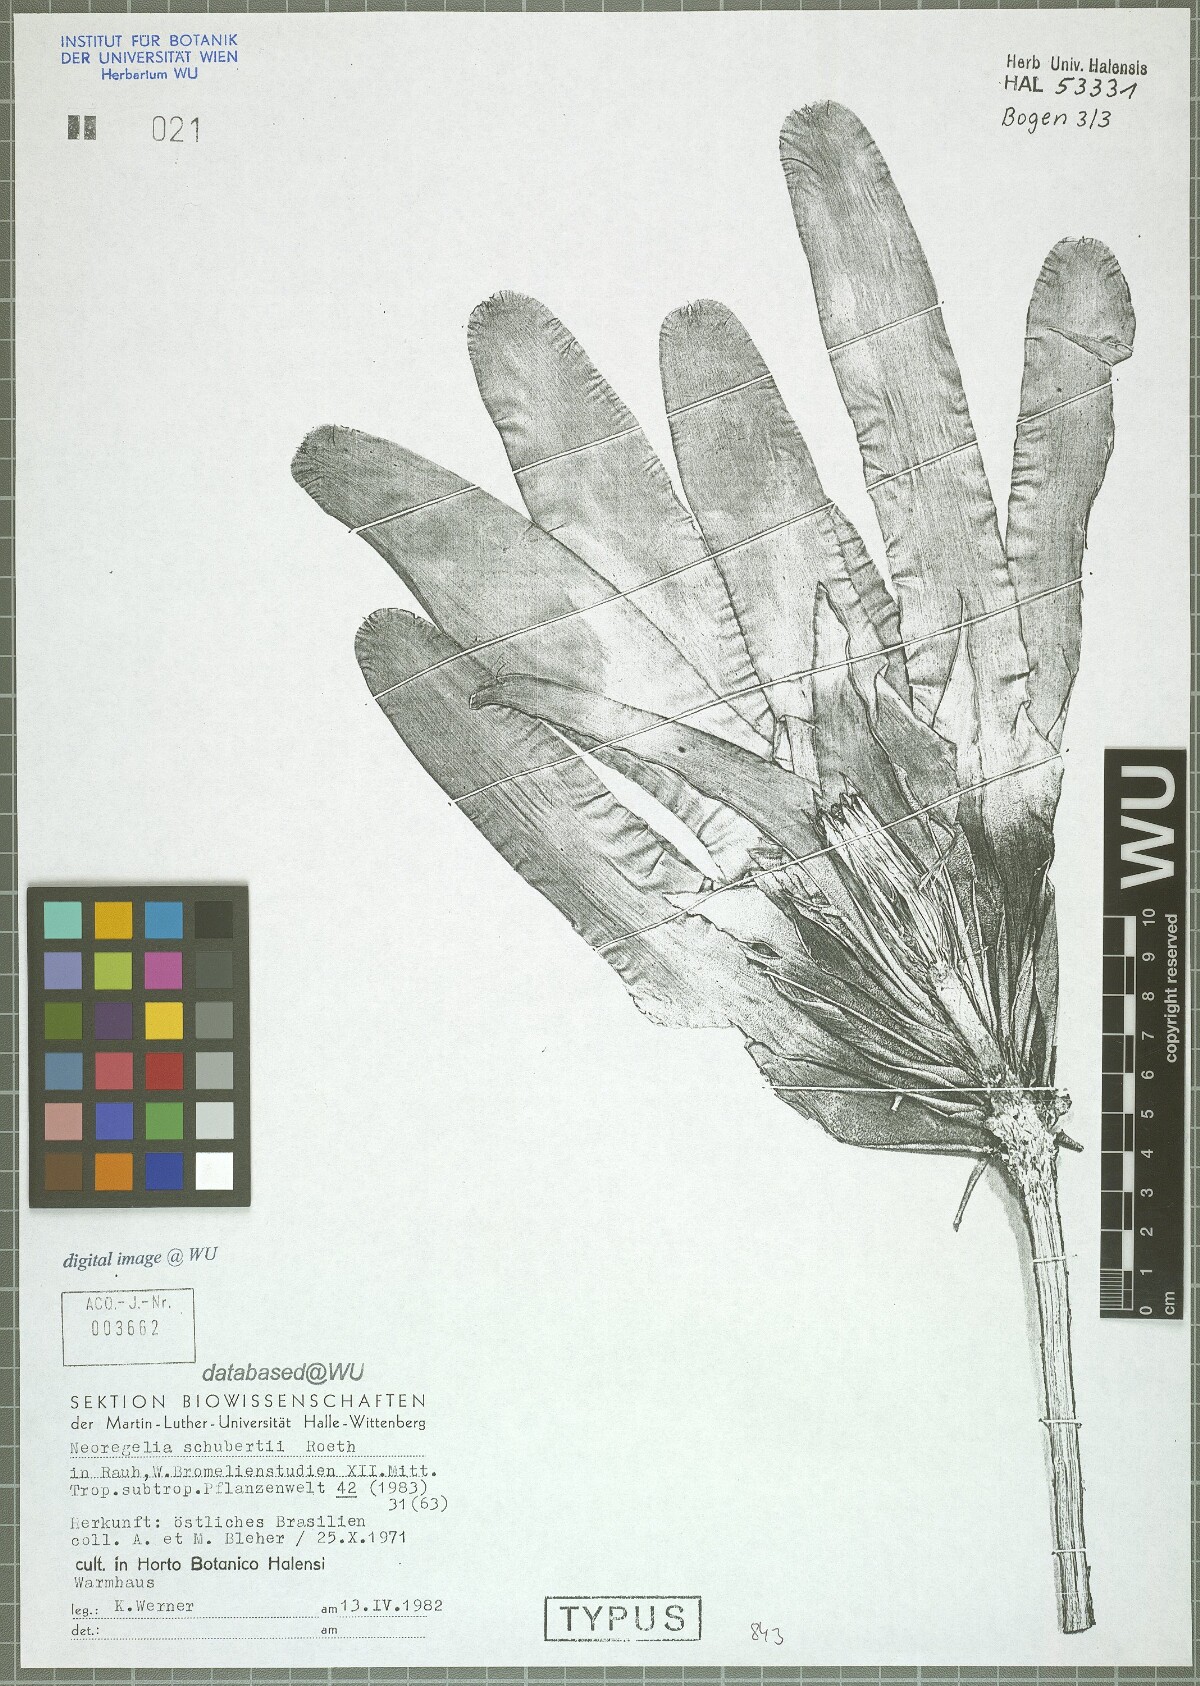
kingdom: Plantae
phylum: Tracheophyta
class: Liliopsida
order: Poales
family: Bromeliaceae
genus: Neoregelia
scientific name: Neoregelia schubertii
